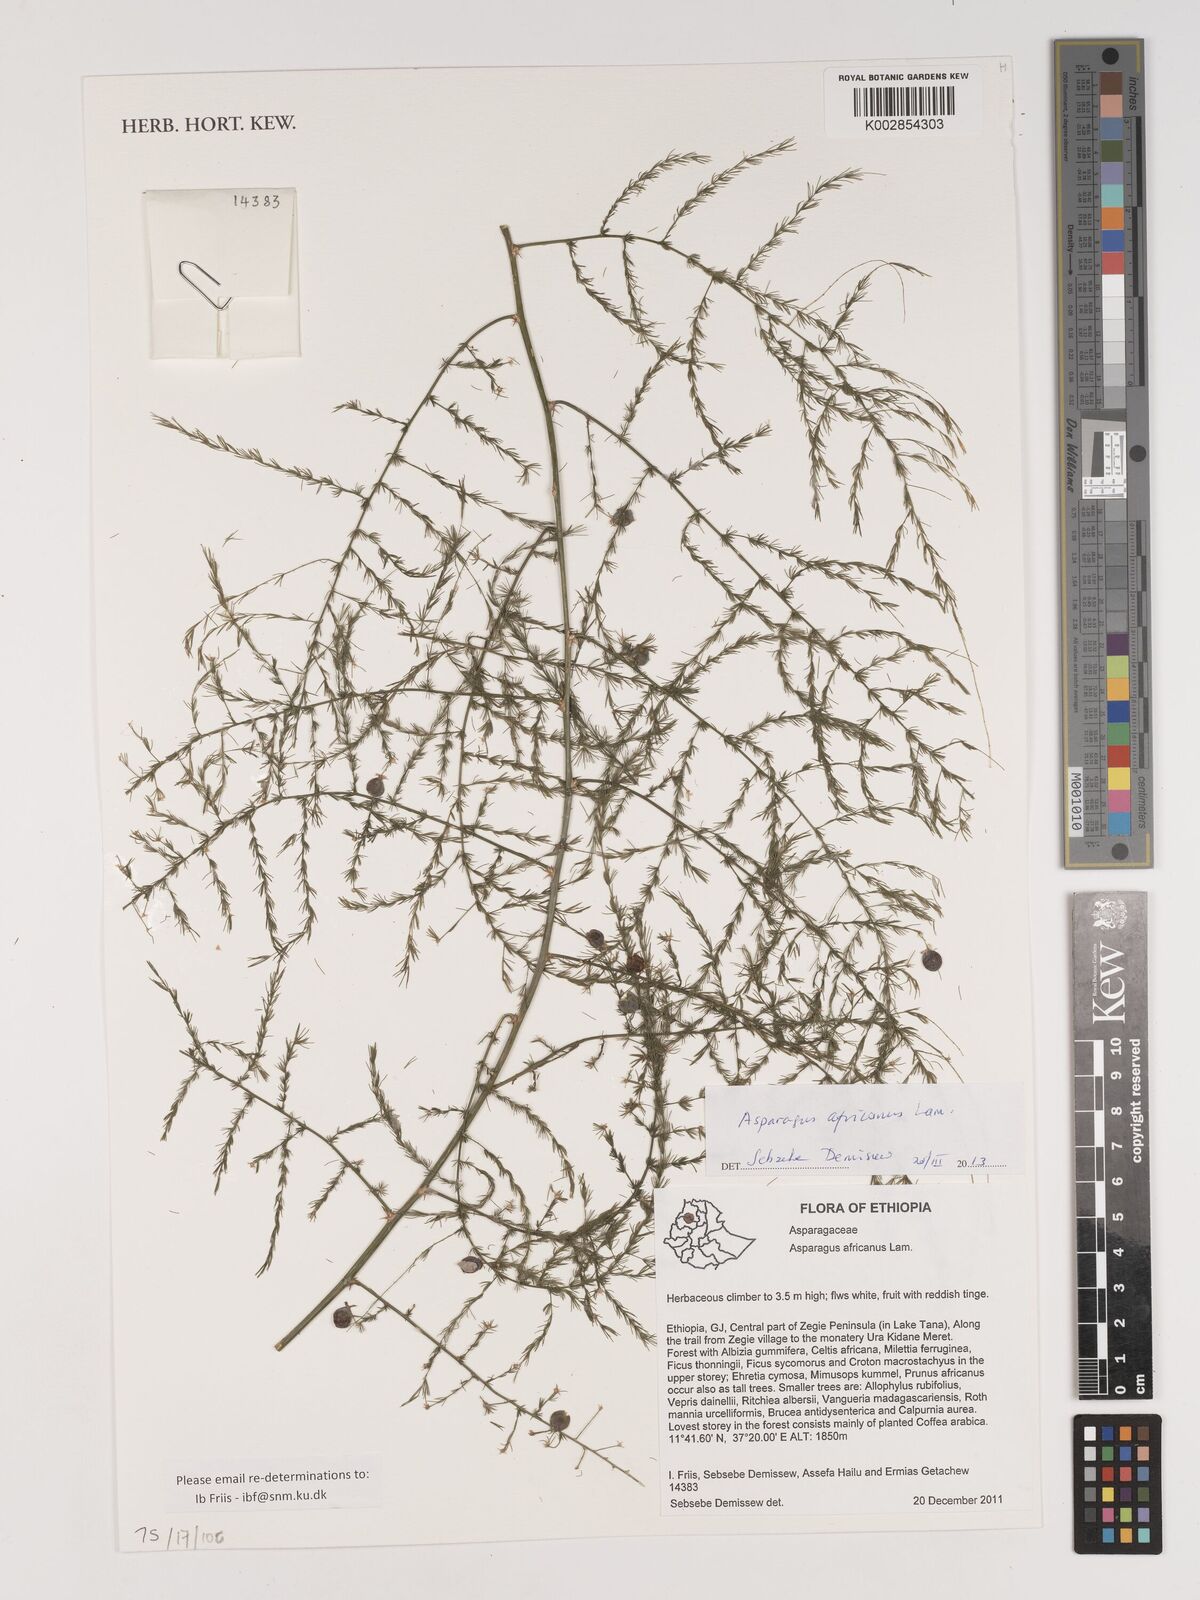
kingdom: Plantae
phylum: Tracheophyta
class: Liliopsida
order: Asparagales
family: Asparagaceae
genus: Asparagus
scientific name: Asparagus africanus
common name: Asparagus-fern
